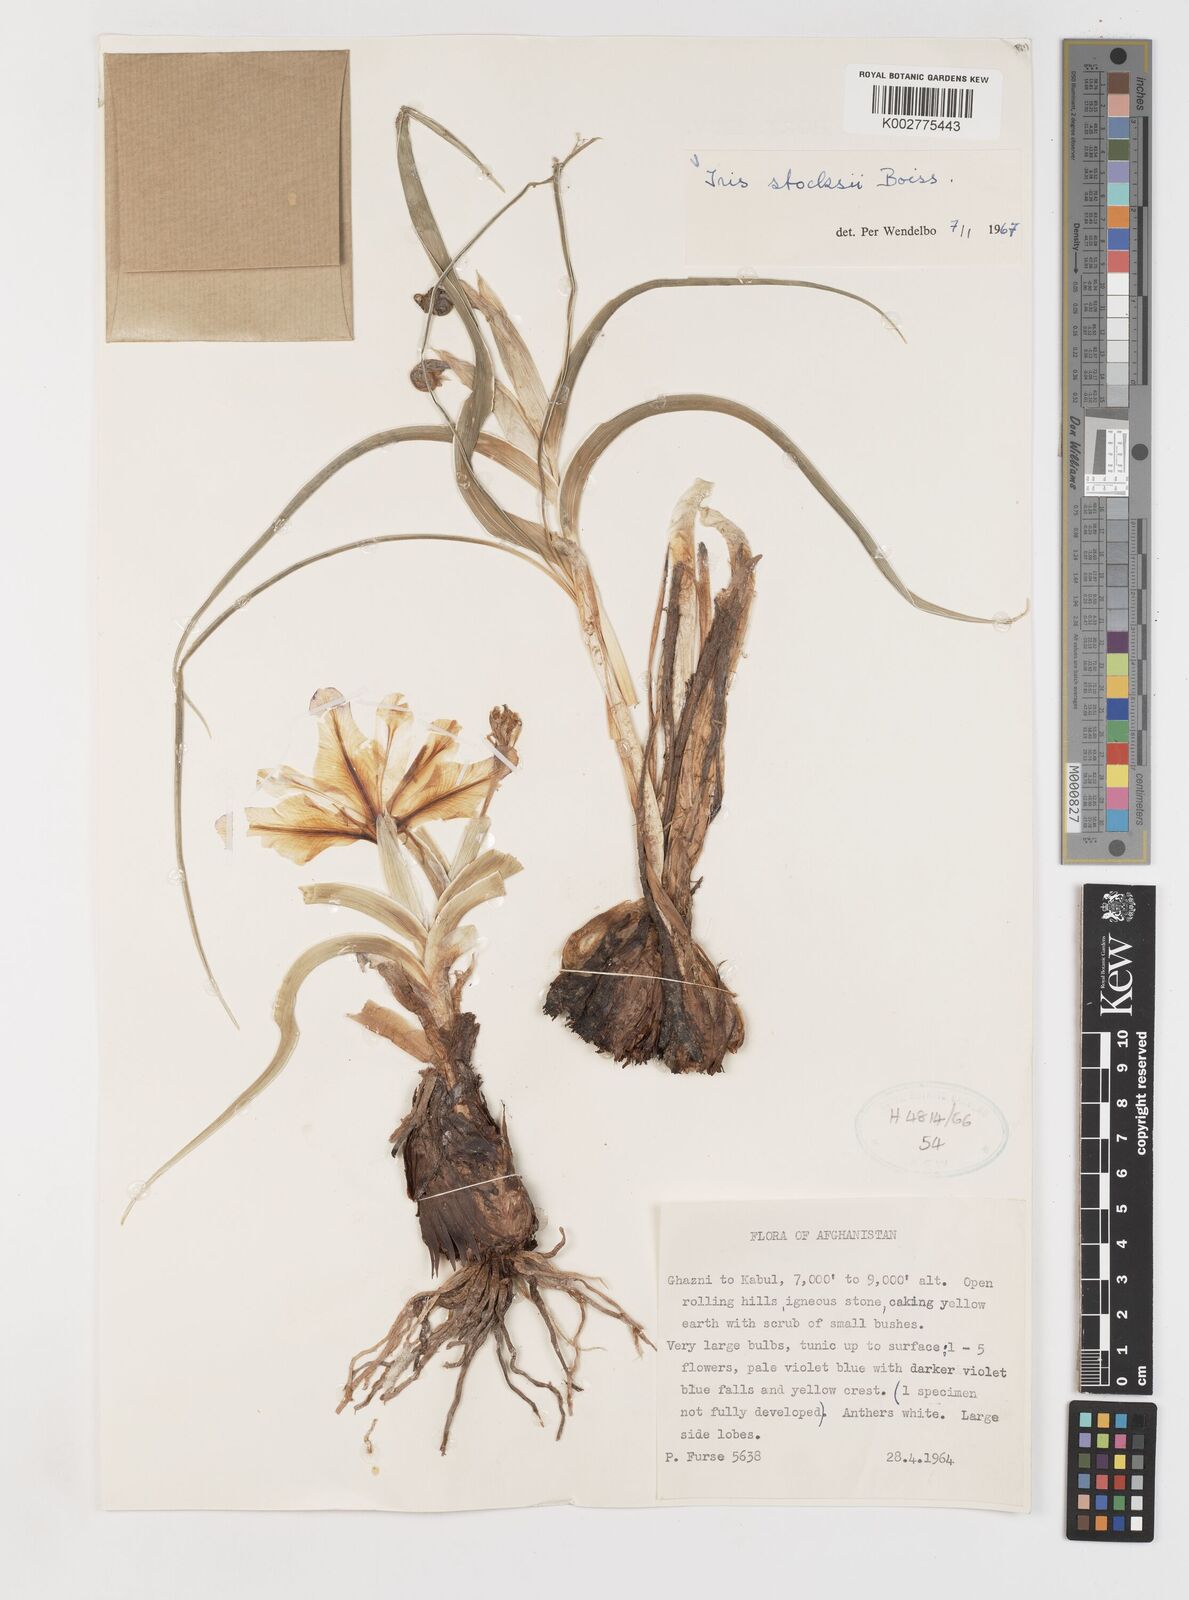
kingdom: Plantae
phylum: Tracheophyta
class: Liliopsida
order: Asparagales
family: Iridaceae
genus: Iris
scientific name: Iris stocksii
